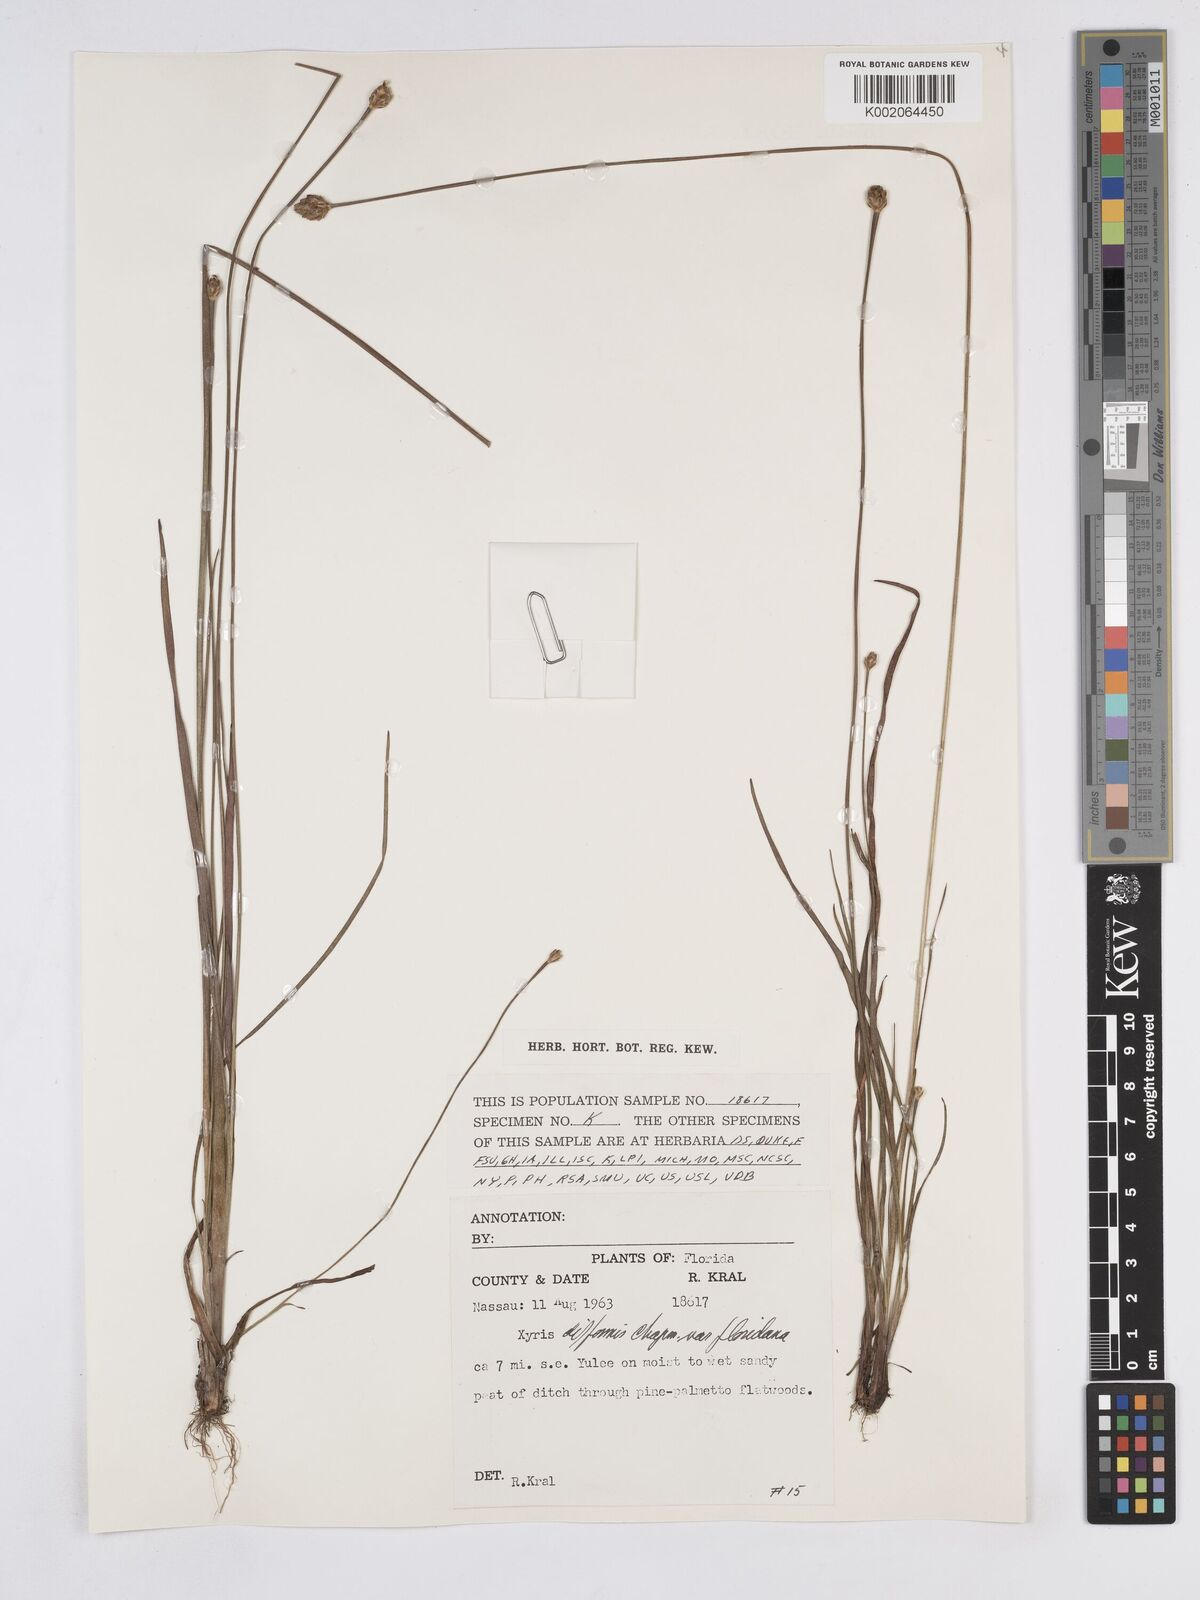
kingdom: Plantae
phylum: Tracheophyta
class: Liliopsida
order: Poales
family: Xyridaceae
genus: Xyris
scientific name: Xyris floridana
